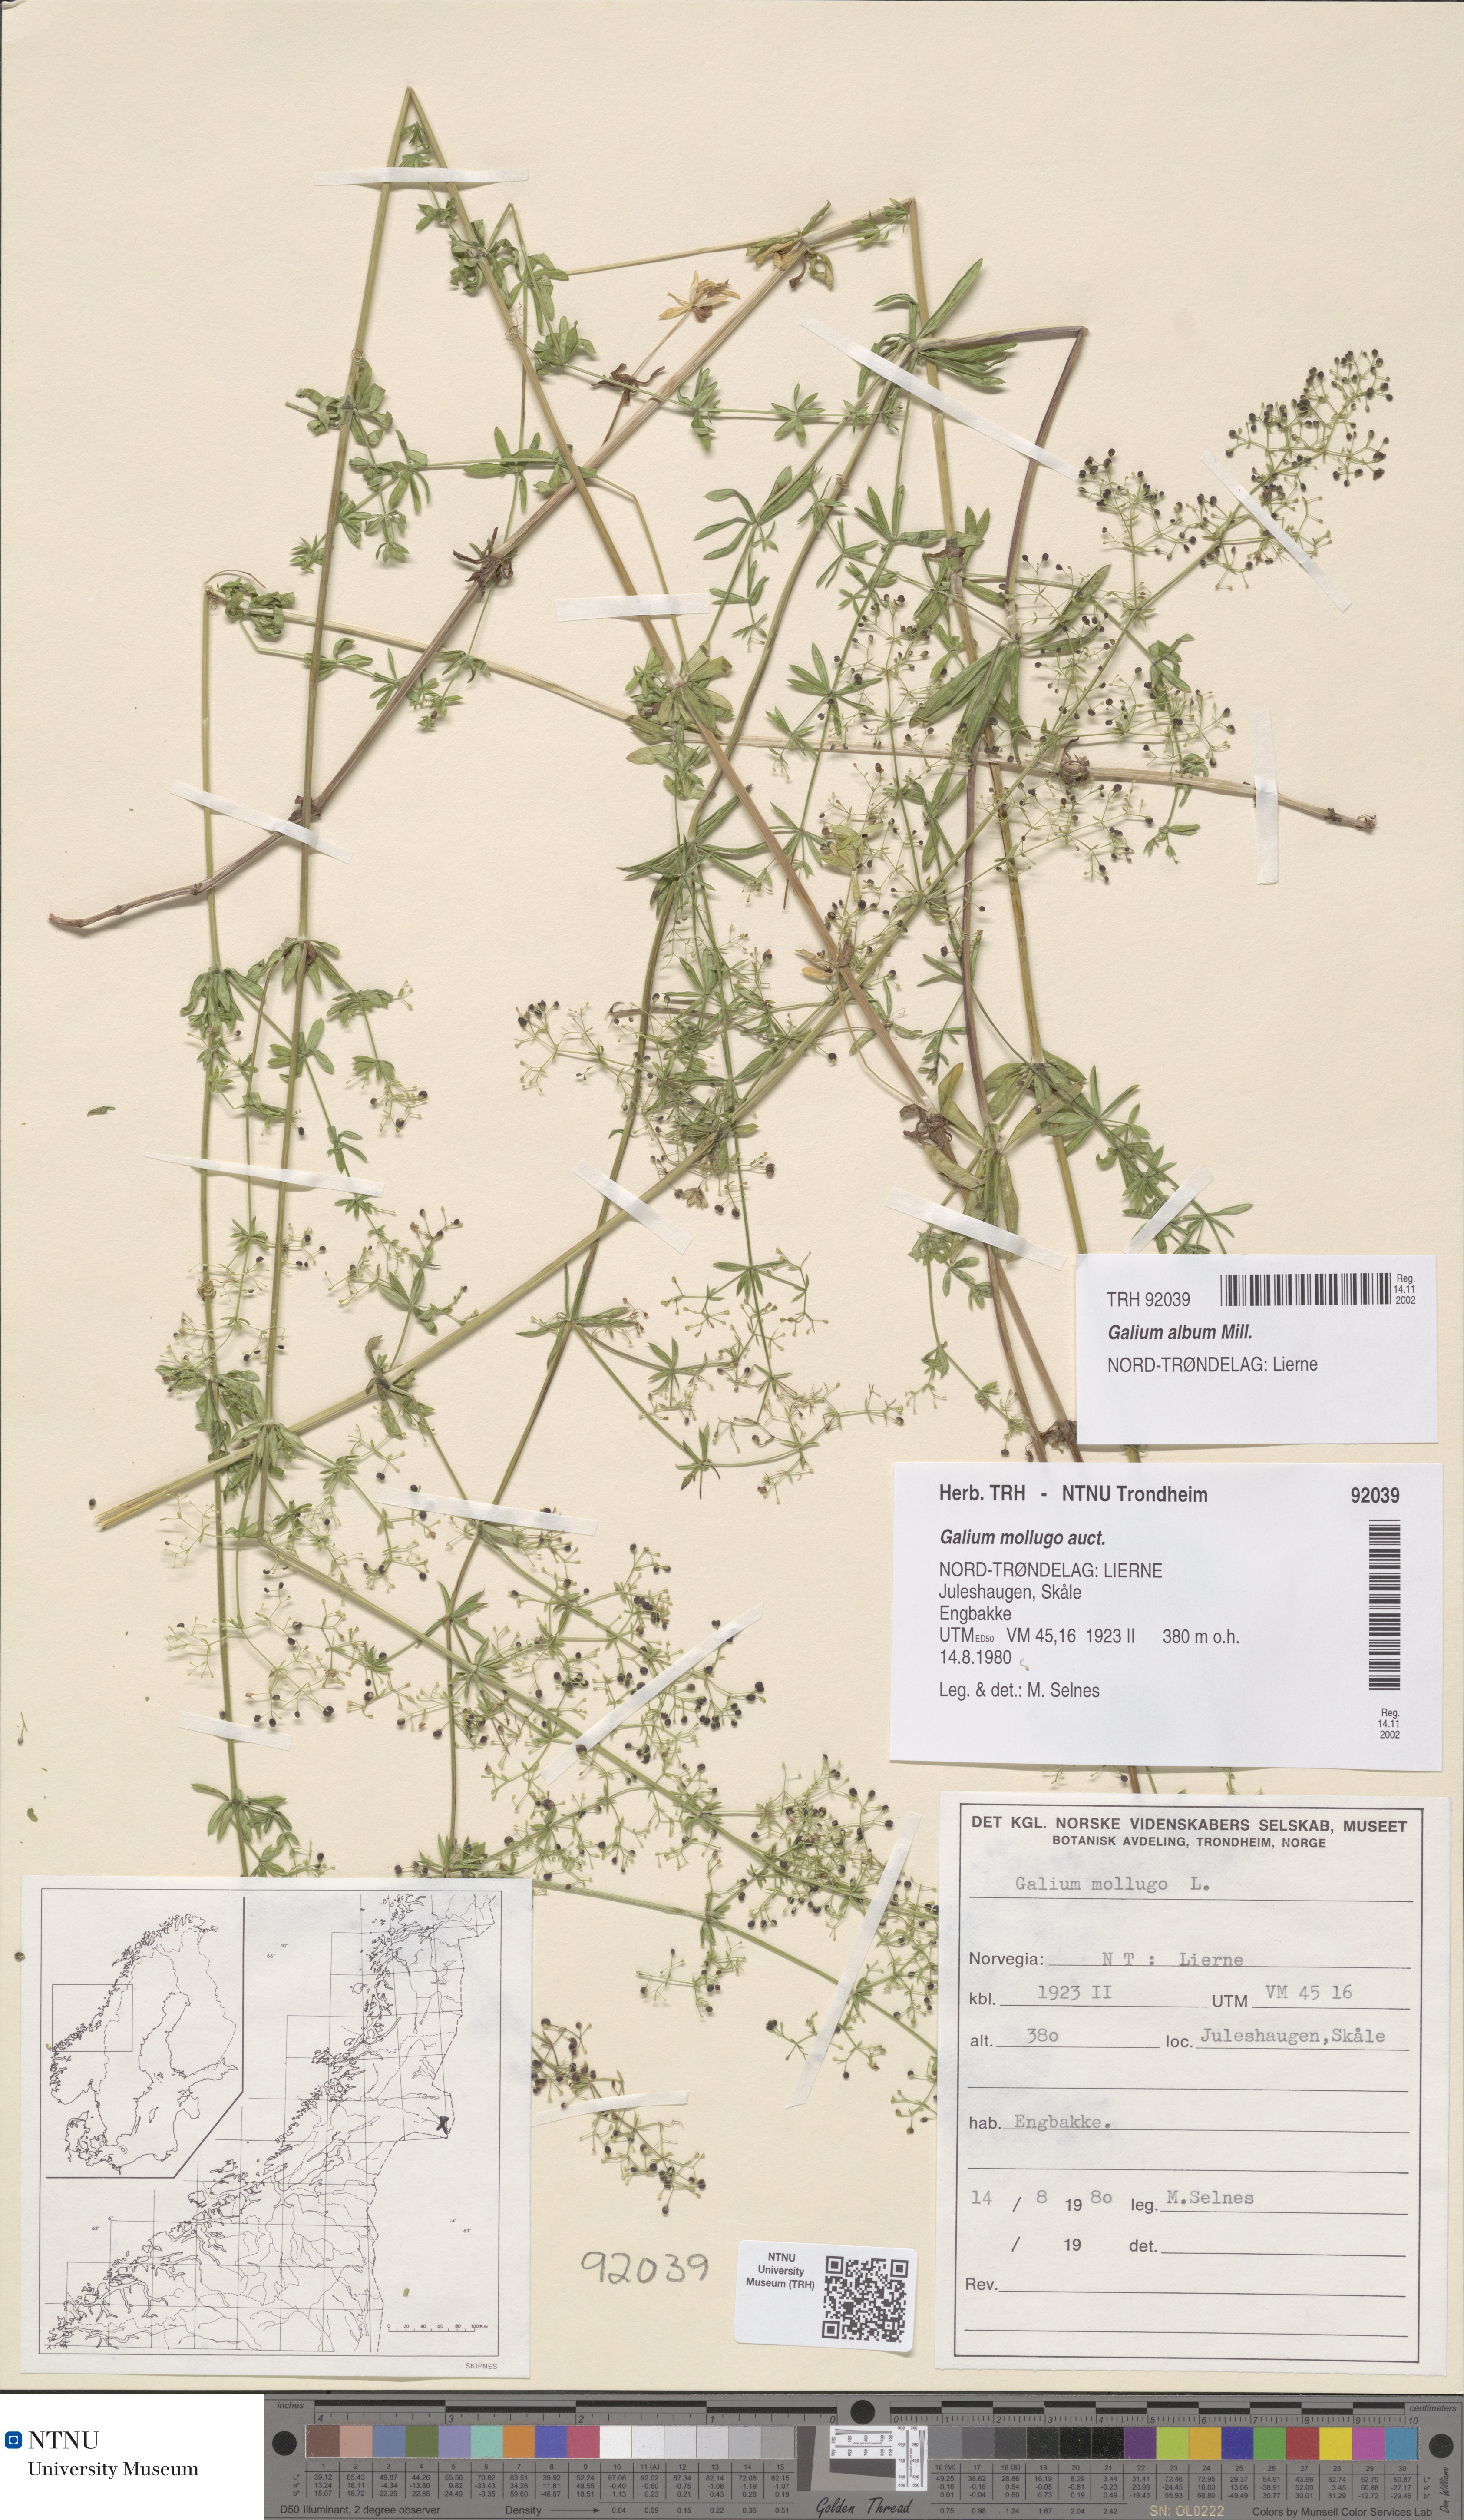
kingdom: Plantae
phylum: Tracheophyta
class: Magnoliopsida
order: Gentianales
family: Rubiaceae
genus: Galium
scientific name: Galium album
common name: White bedstraw
